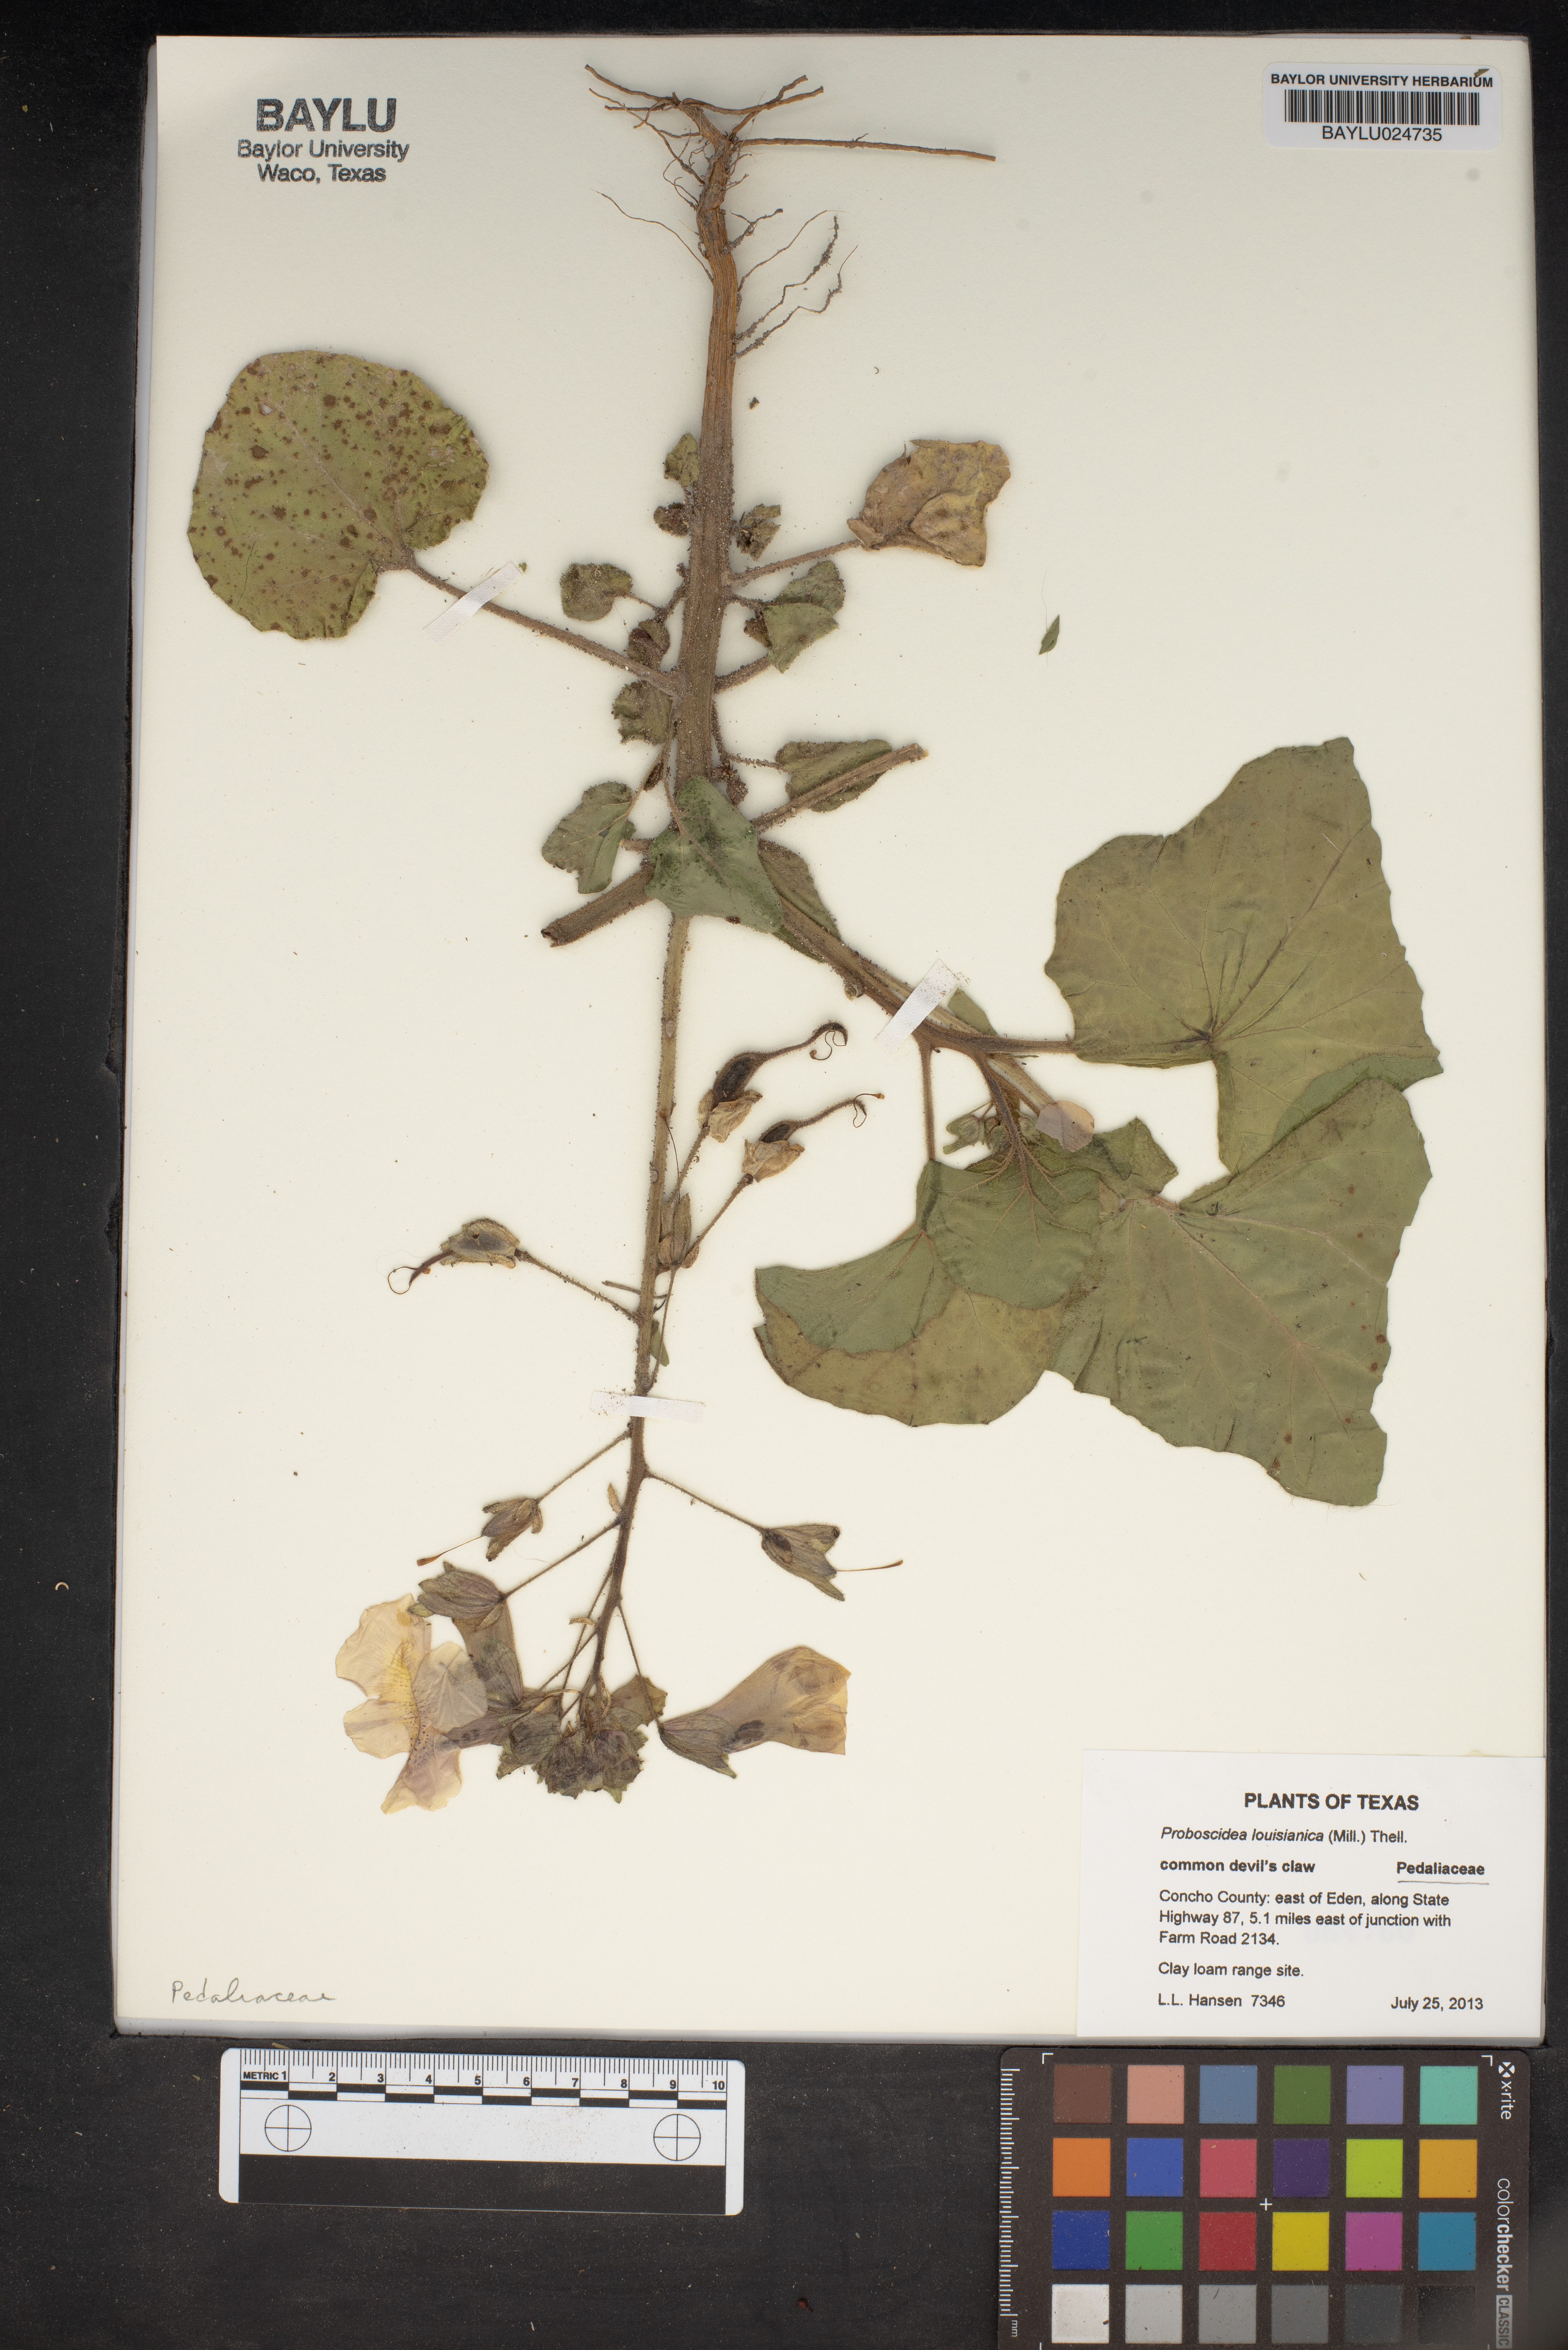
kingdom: Plantae
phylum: Tracheophyta
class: Magnoliopsida
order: Lamiales
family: Martyniaceae
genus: Proboscidea
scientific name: Proboscidea louisianica
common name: Elephant tusks
